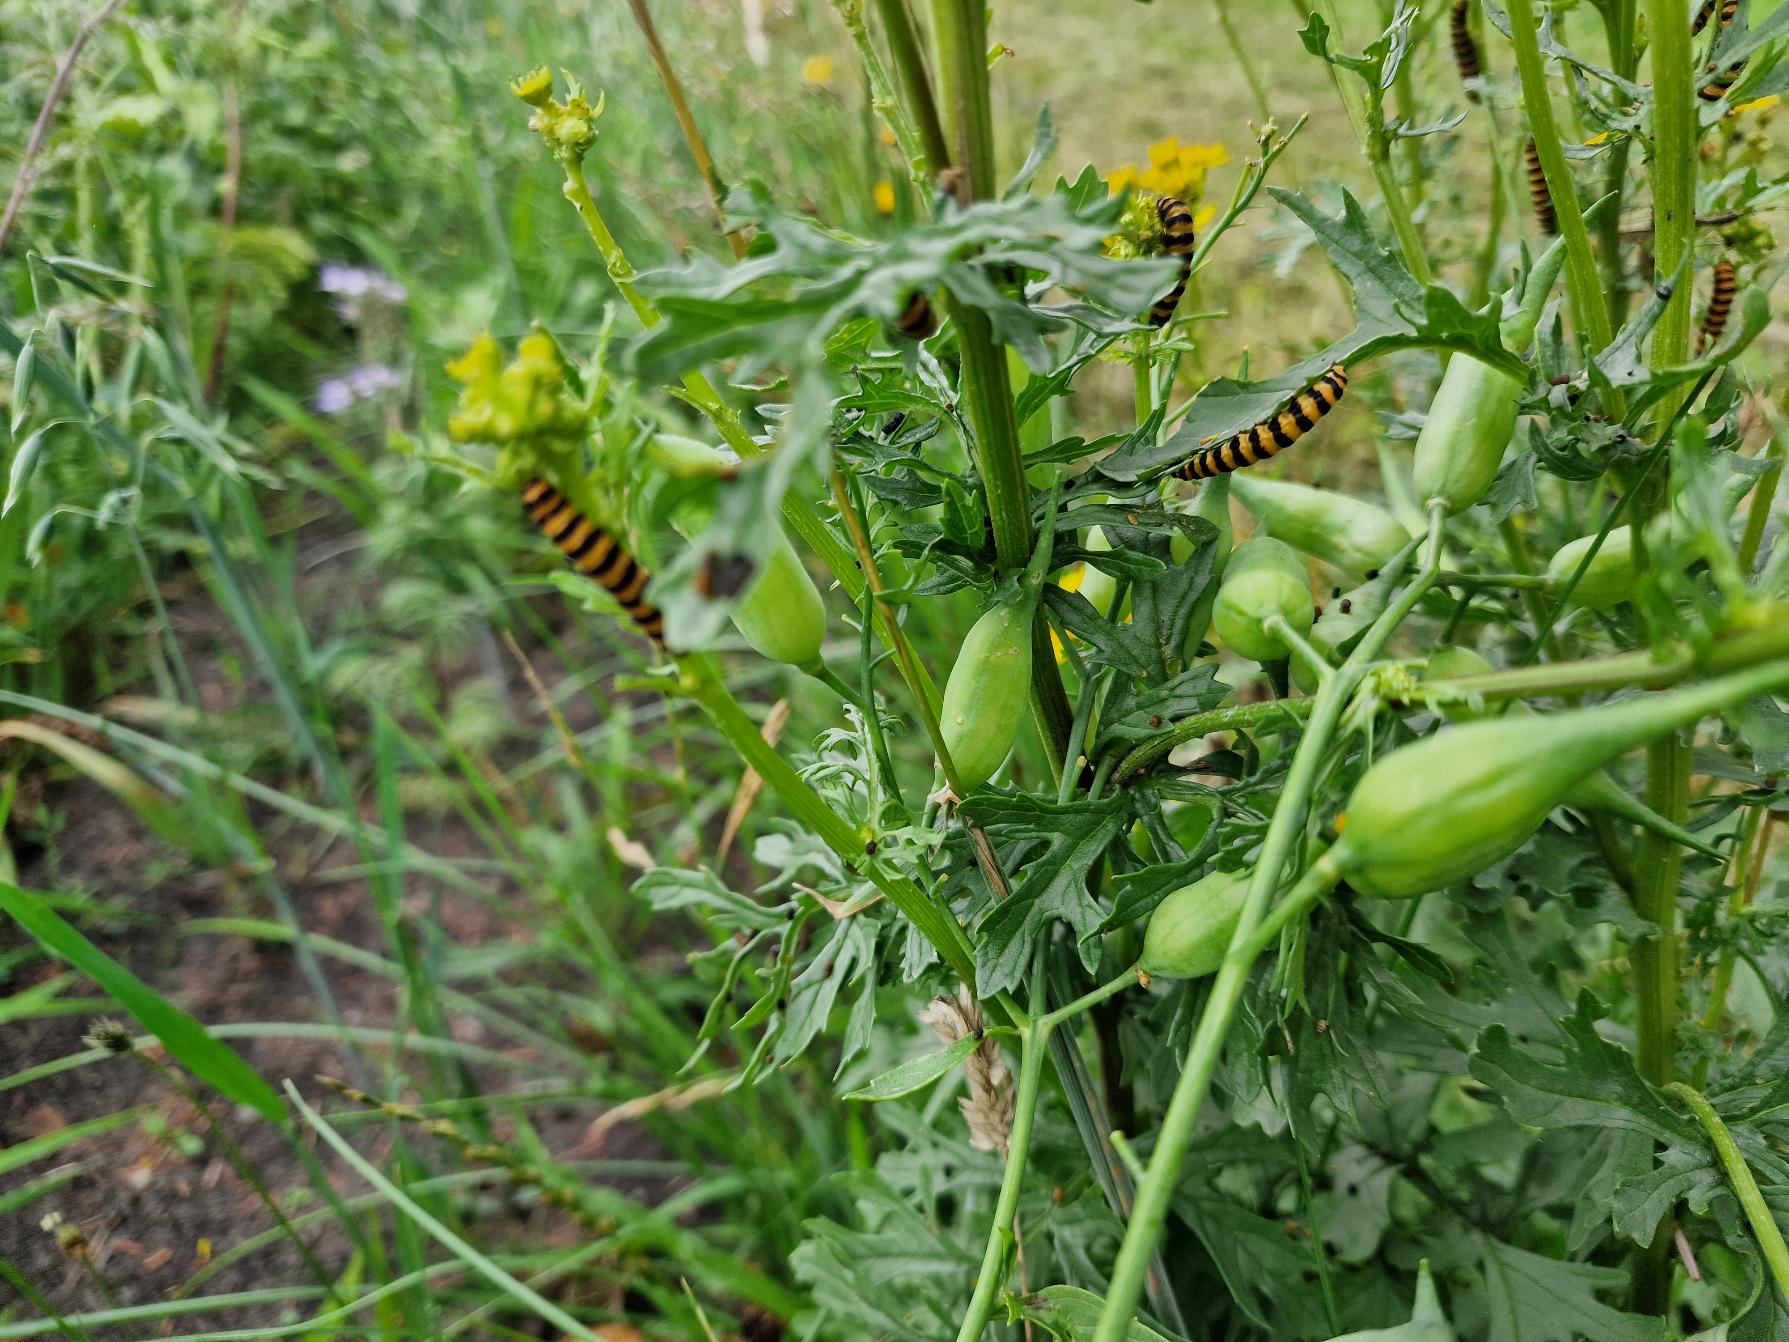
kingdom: Animalia
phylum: Arthropoda
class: Insecta
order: Lepidoptera
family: Erebidae
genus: Tyria
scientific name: Tyria jacobaeae
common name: Blodplet
